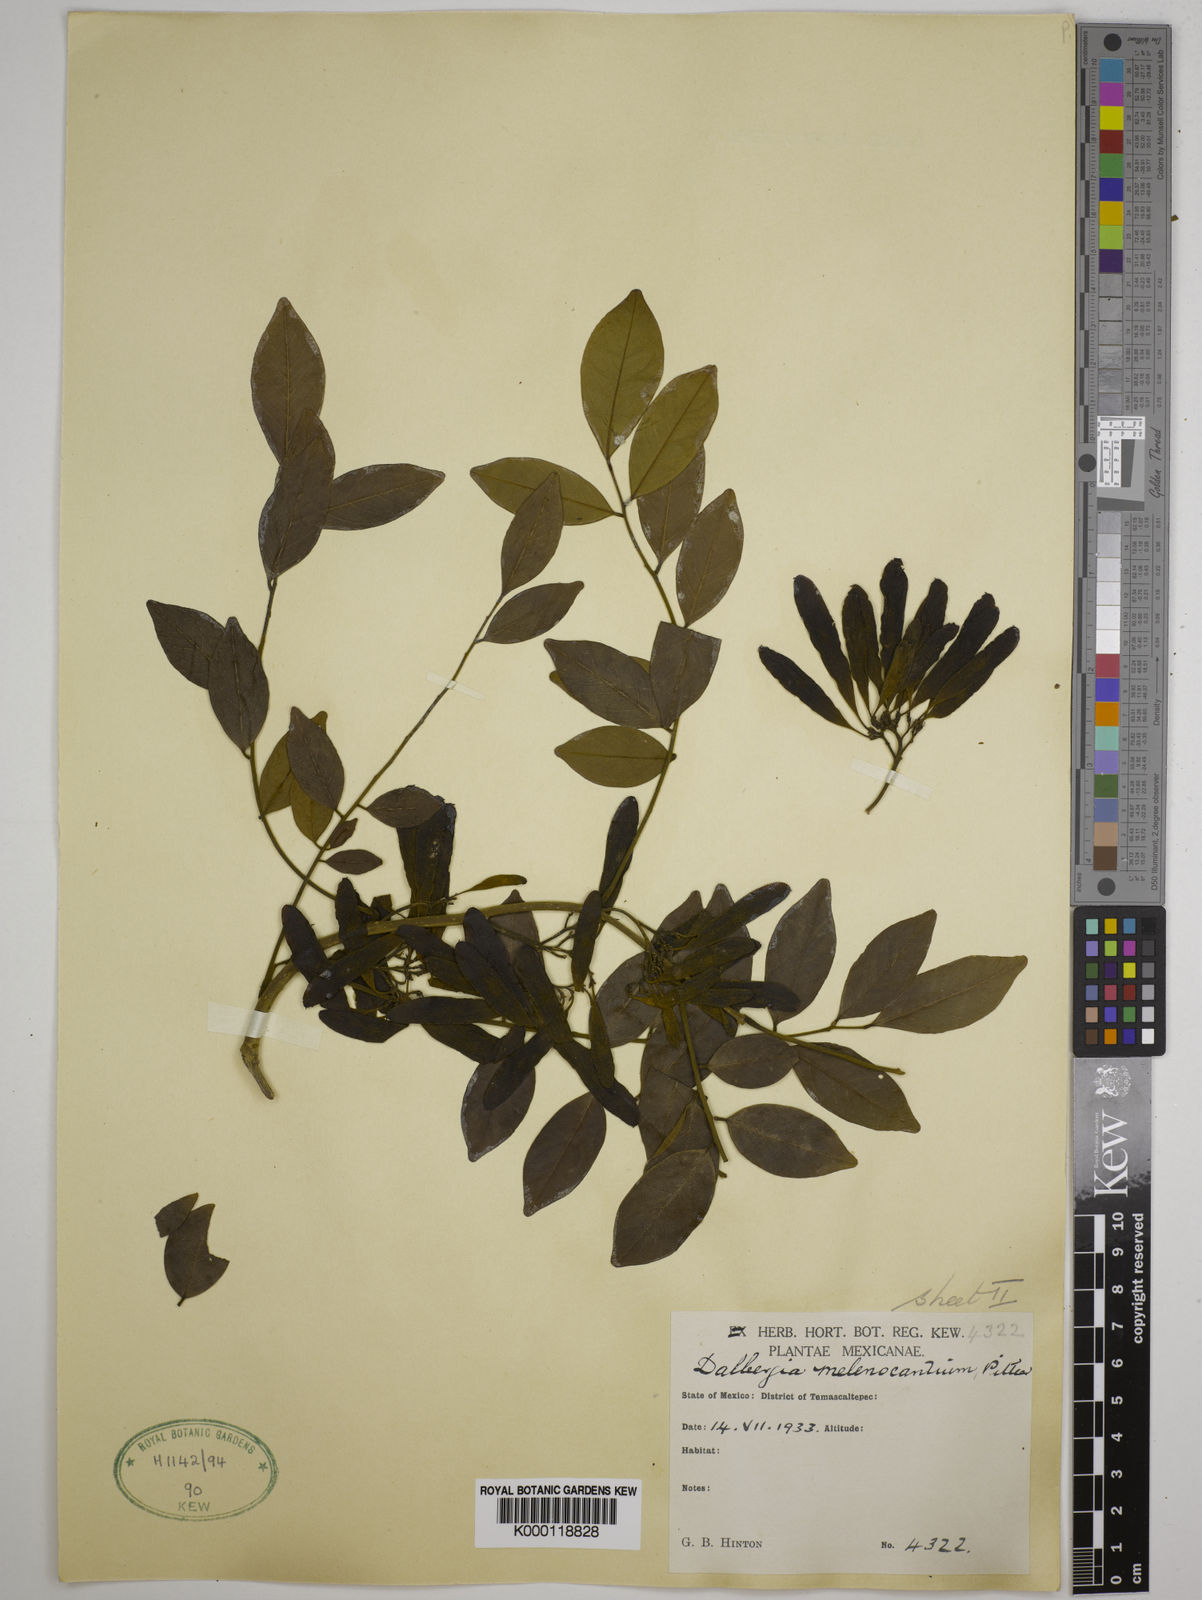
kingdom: Plantae
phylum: Tracheophyta
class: Magnoliopsida
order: Fabales
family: Fabaceae
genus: Dalbergia
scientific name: Dalbergia melanocardium
